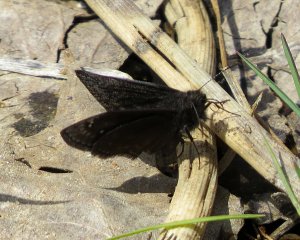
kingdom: Animalia
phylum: Arthropoda
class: Insecta
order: Lepidoptera
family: Hesperiidae
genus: Gesta
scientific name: Gesta
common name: Wild Indigo Duskywing
